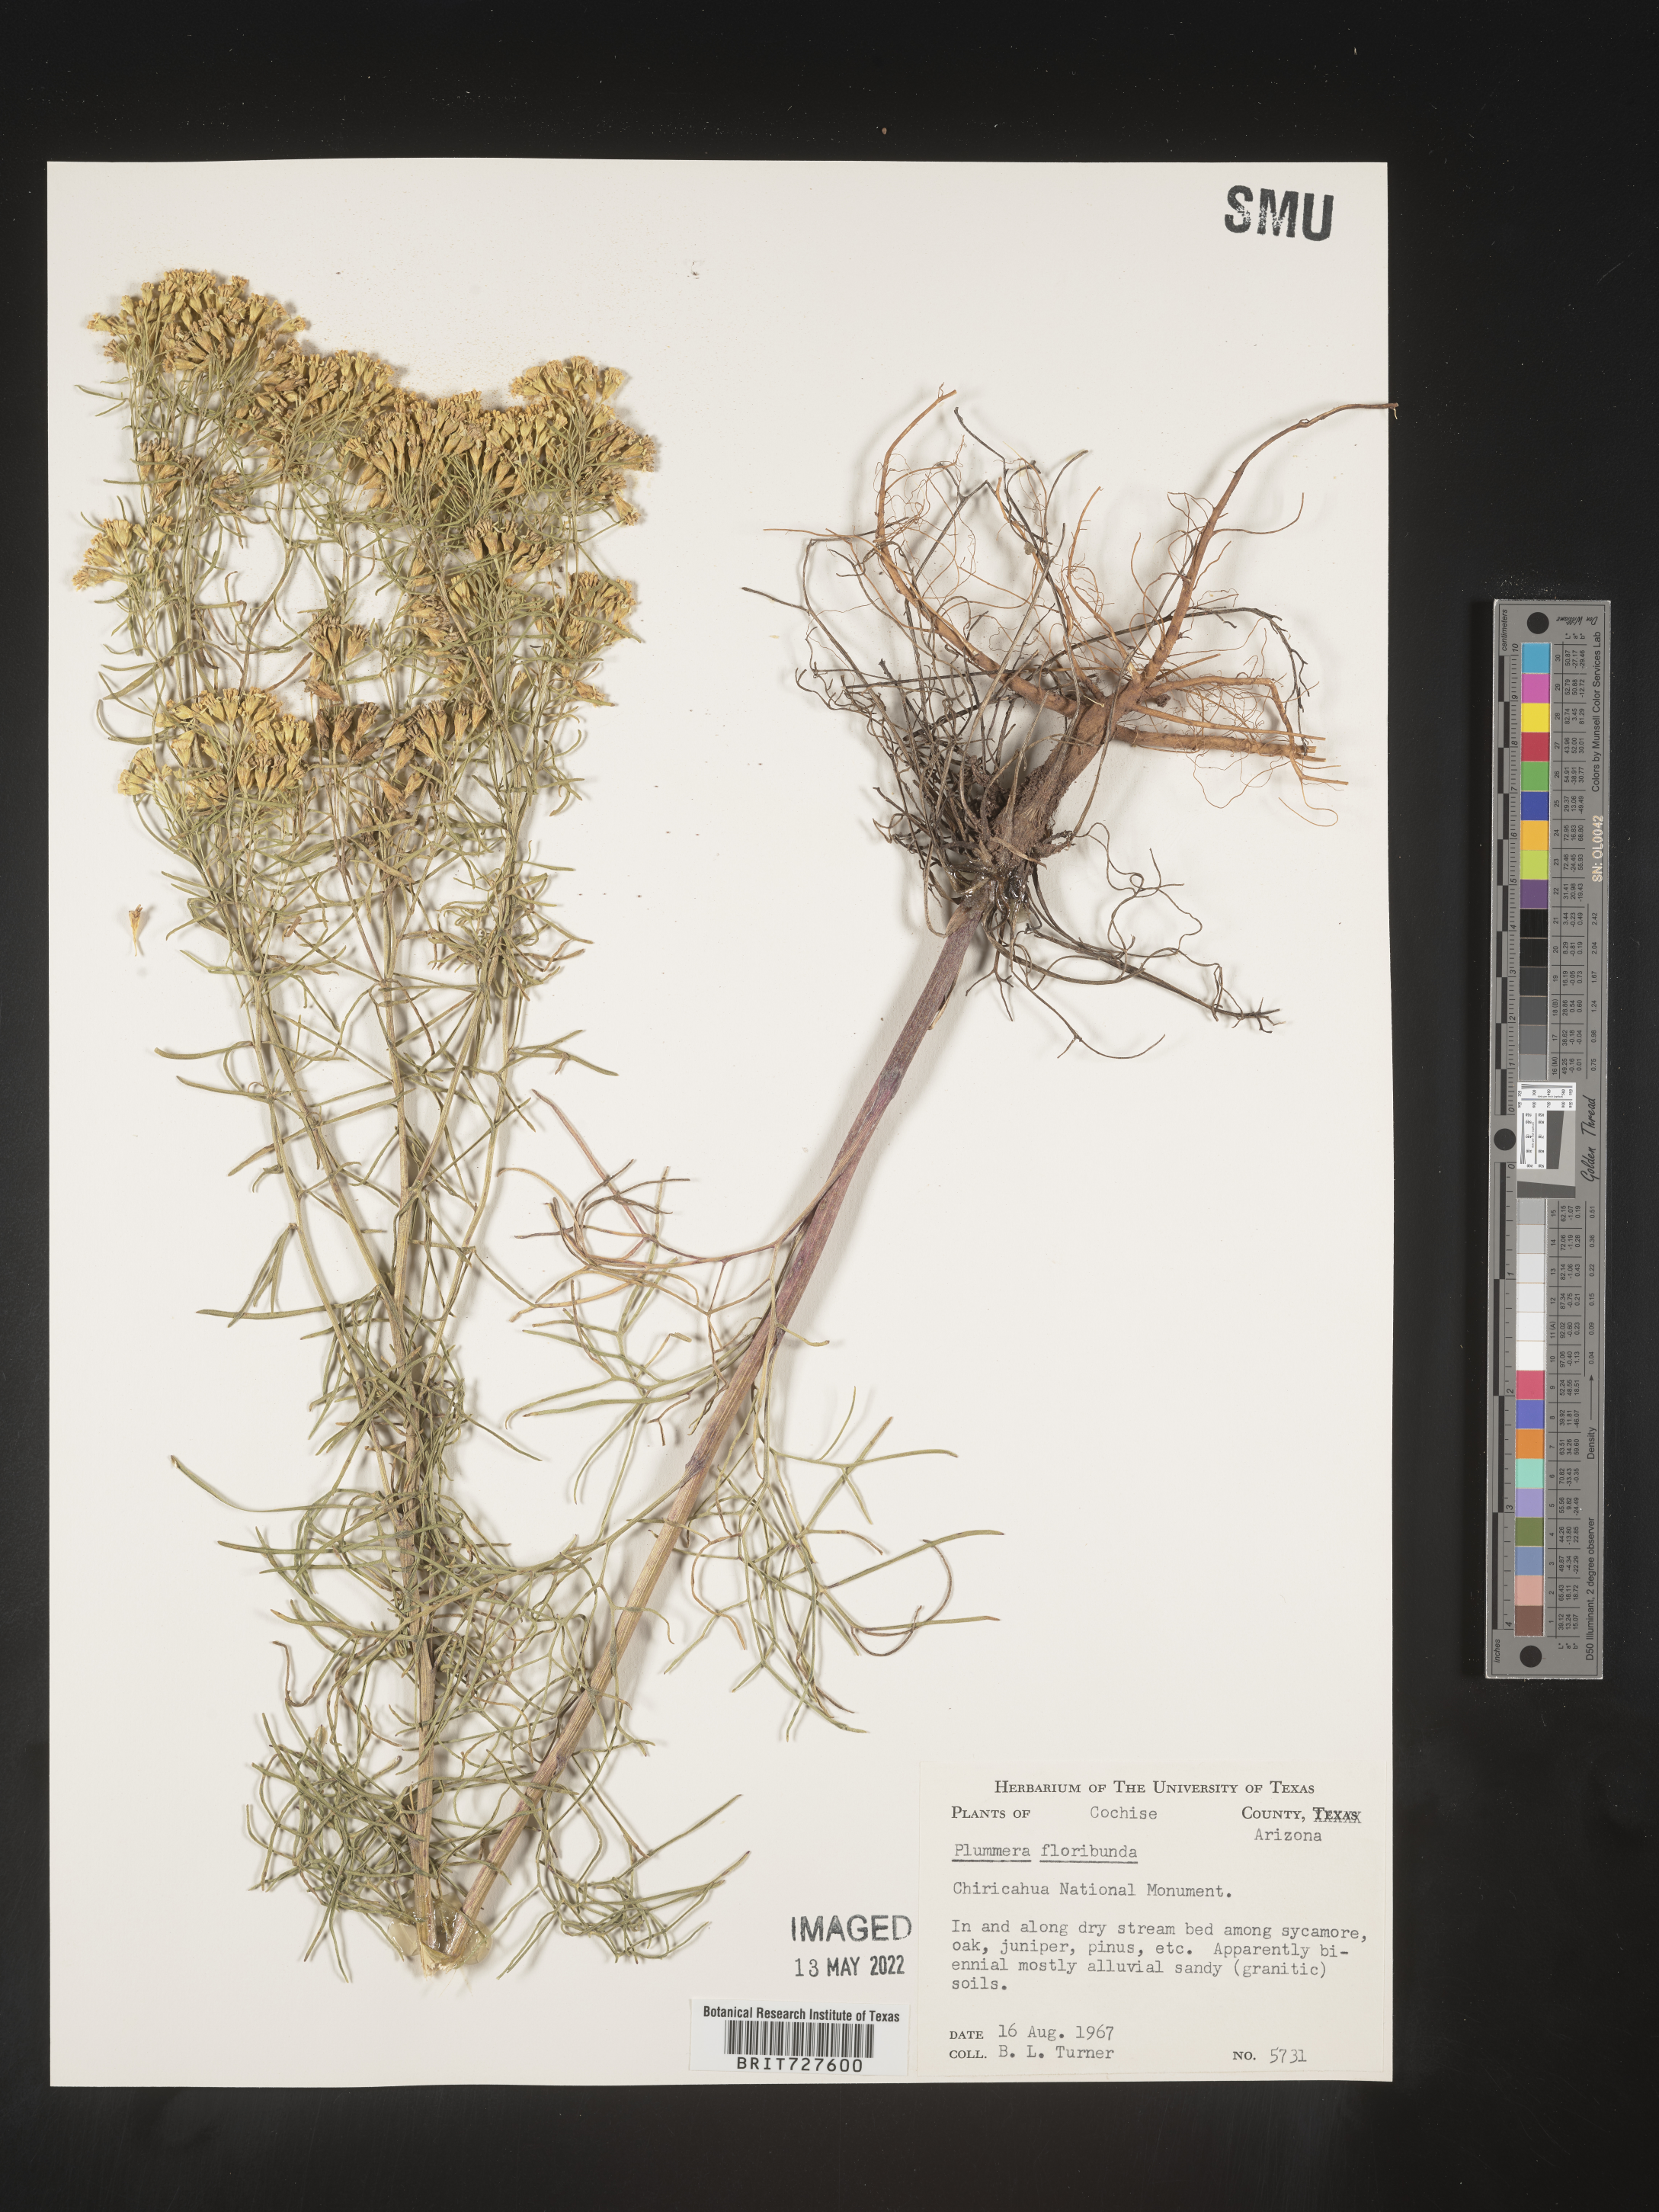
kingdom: Plantae
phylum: Tracheophyta
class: Magnoliopsida
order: Asterales
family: Asteraceae
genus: Hymenoxys
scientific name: Hymenoxys ambigens
